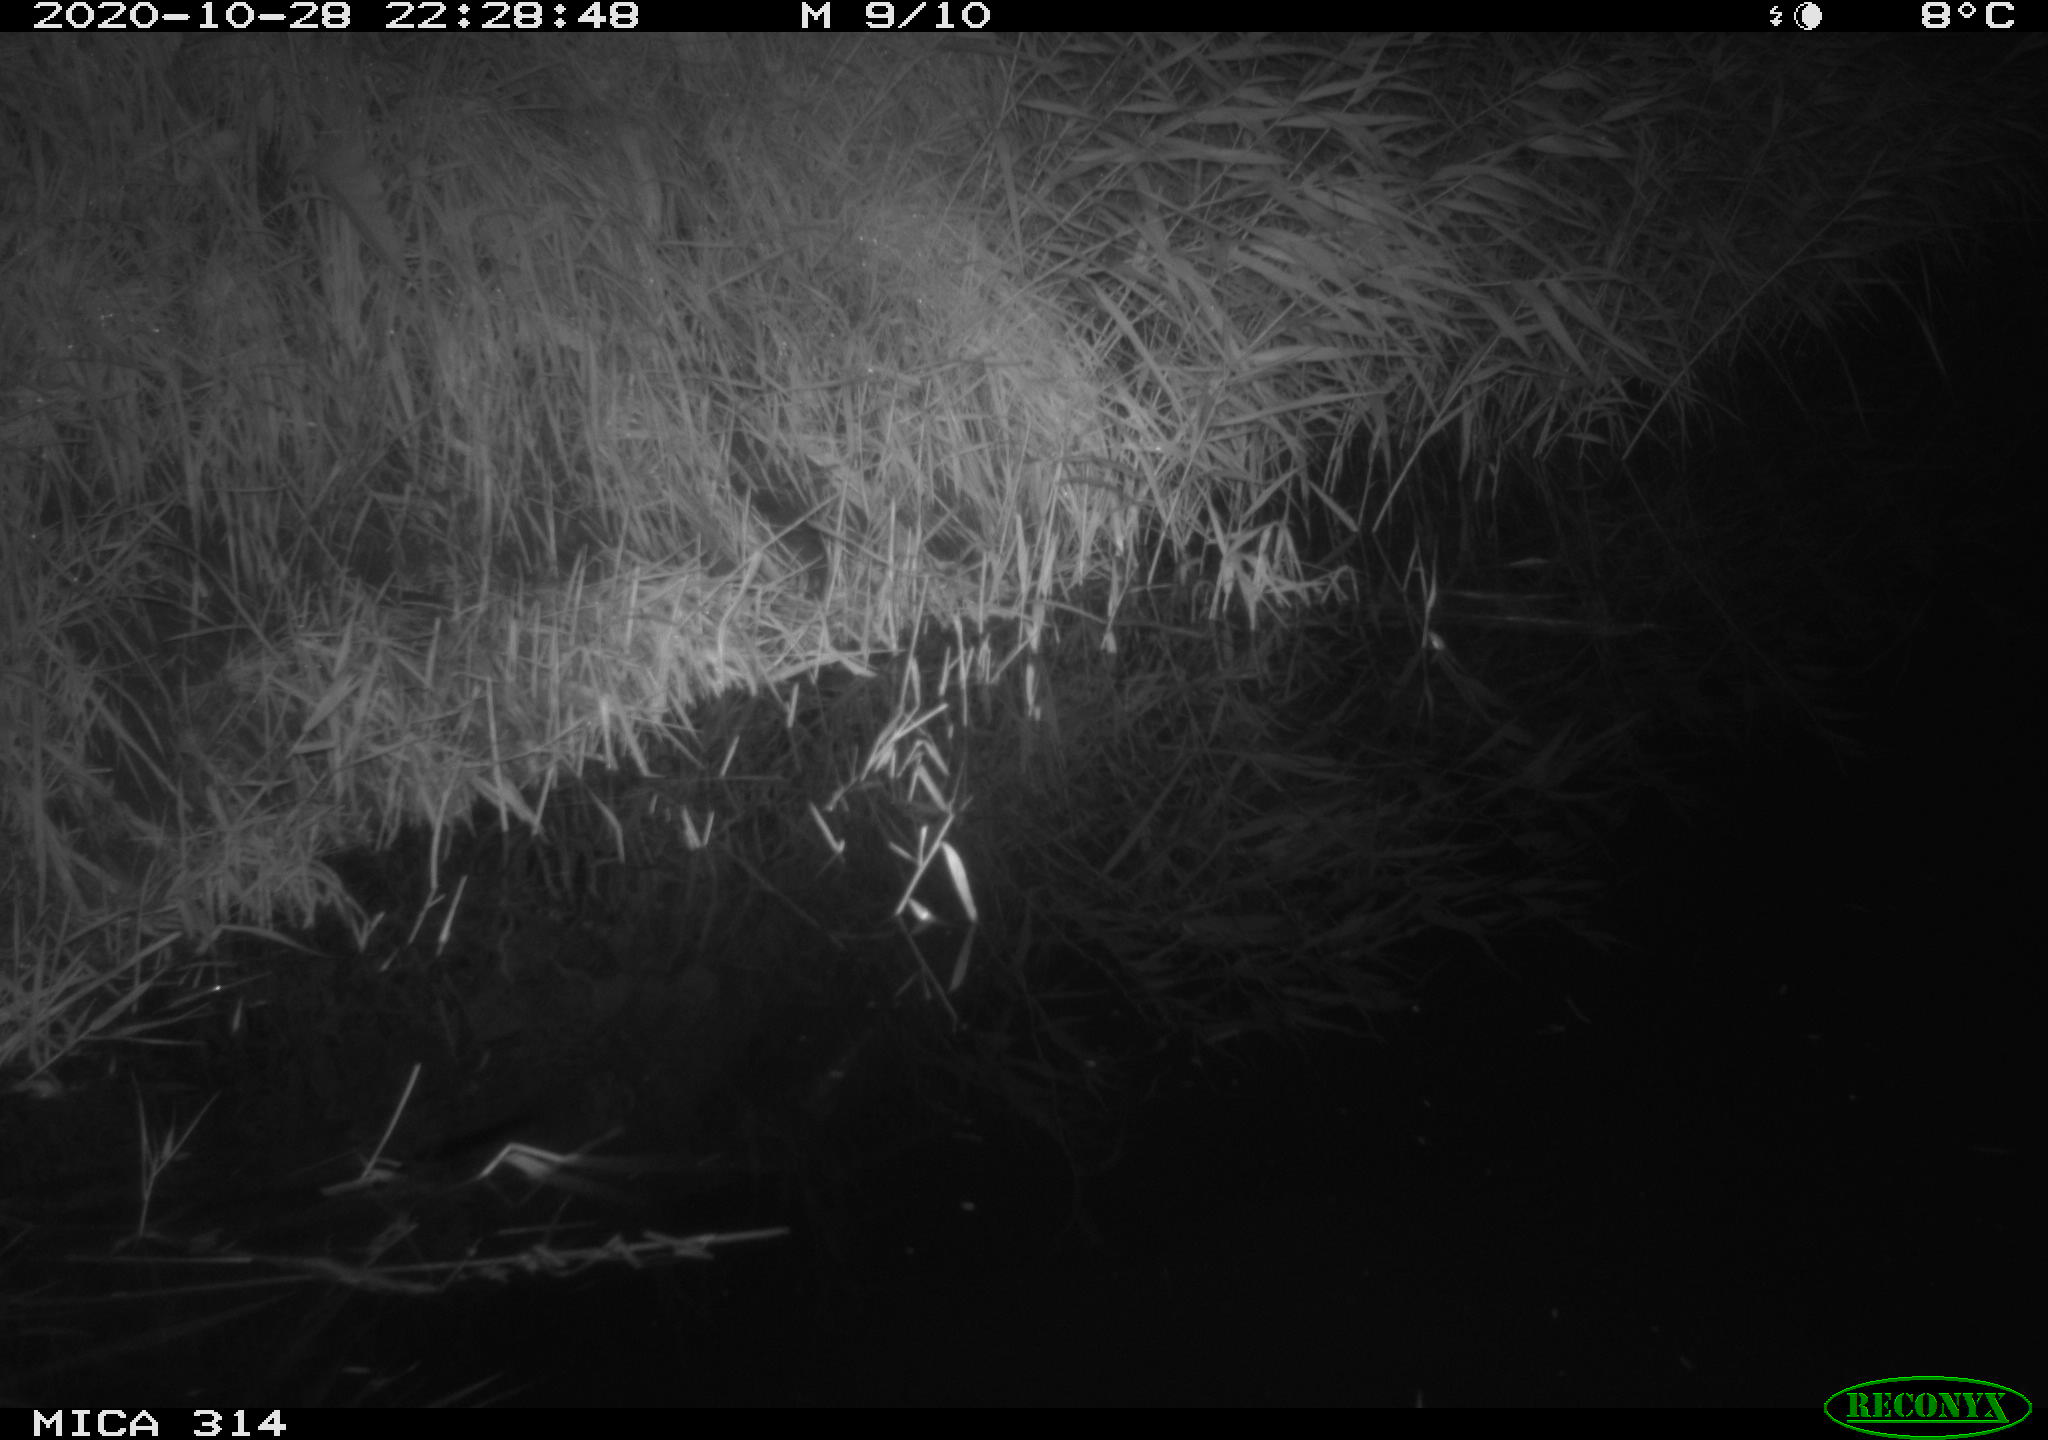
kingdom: Animalia
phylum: Chordata
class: Mammalia
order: Rodentia
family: Muridae
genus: Rattus
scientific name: Rattus norvegicus
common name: Brown rat
